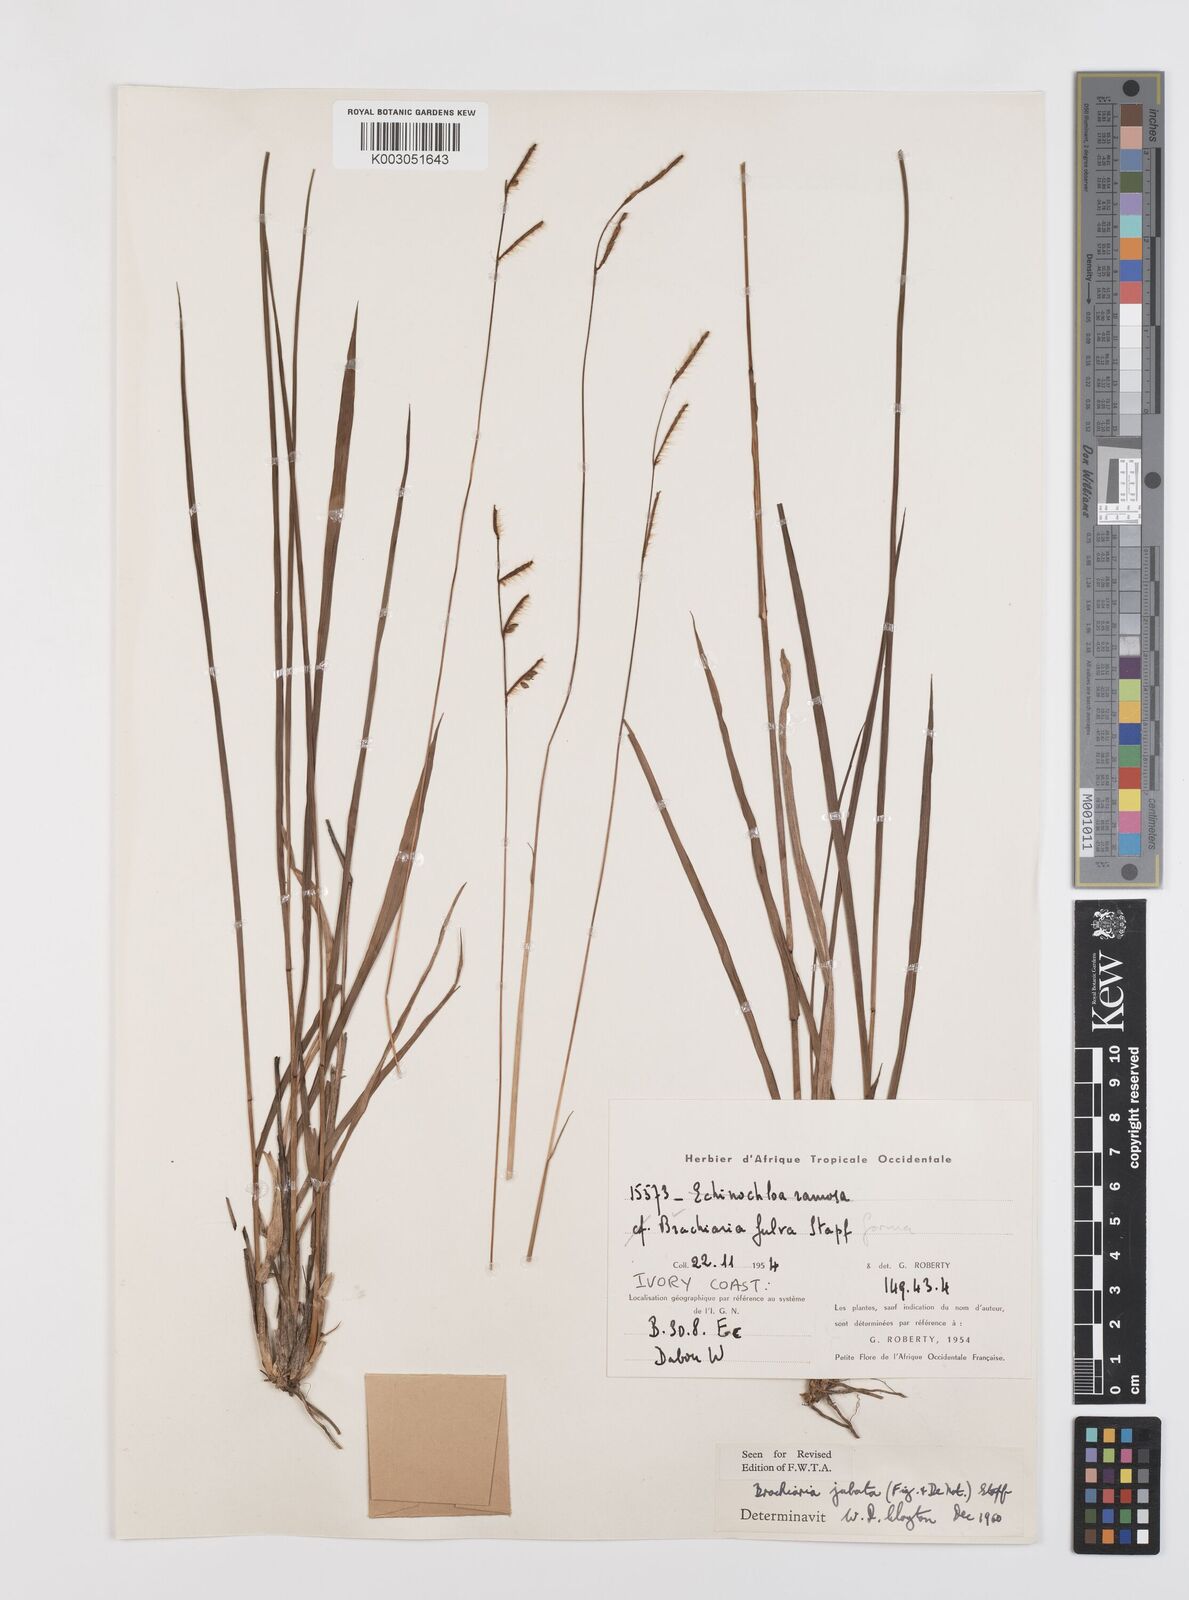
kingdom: Plantae
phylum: Tracheophyta
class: Liliopsida
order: Poales
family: Poaceae
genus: Urochloa
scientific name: Urochloa jubata
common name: Buffalograss
